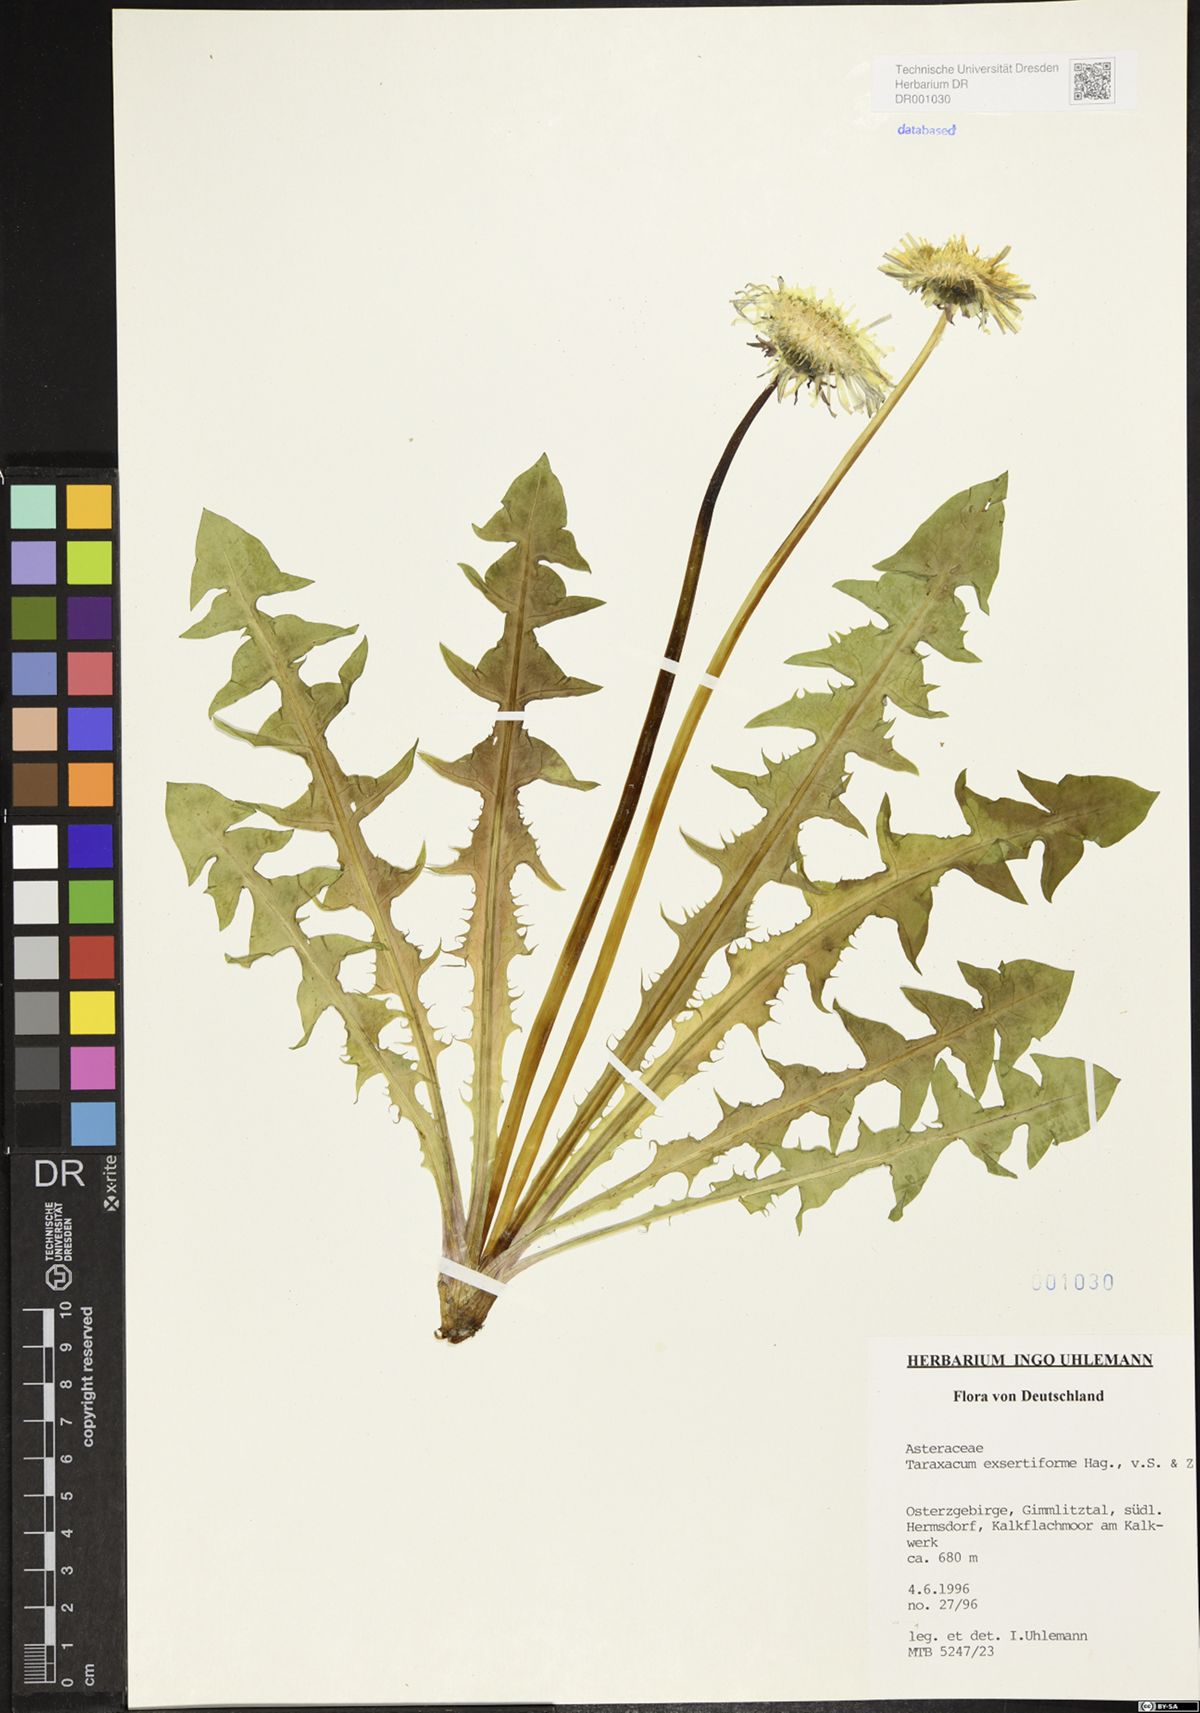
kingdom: Plantae
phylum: Tracheophyta
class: Magnoliopsida
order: Asterales
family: Asteraceae
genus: Taraxacum
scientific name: Taraxacum exsertiforme
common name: Erect-bracted dandelion
